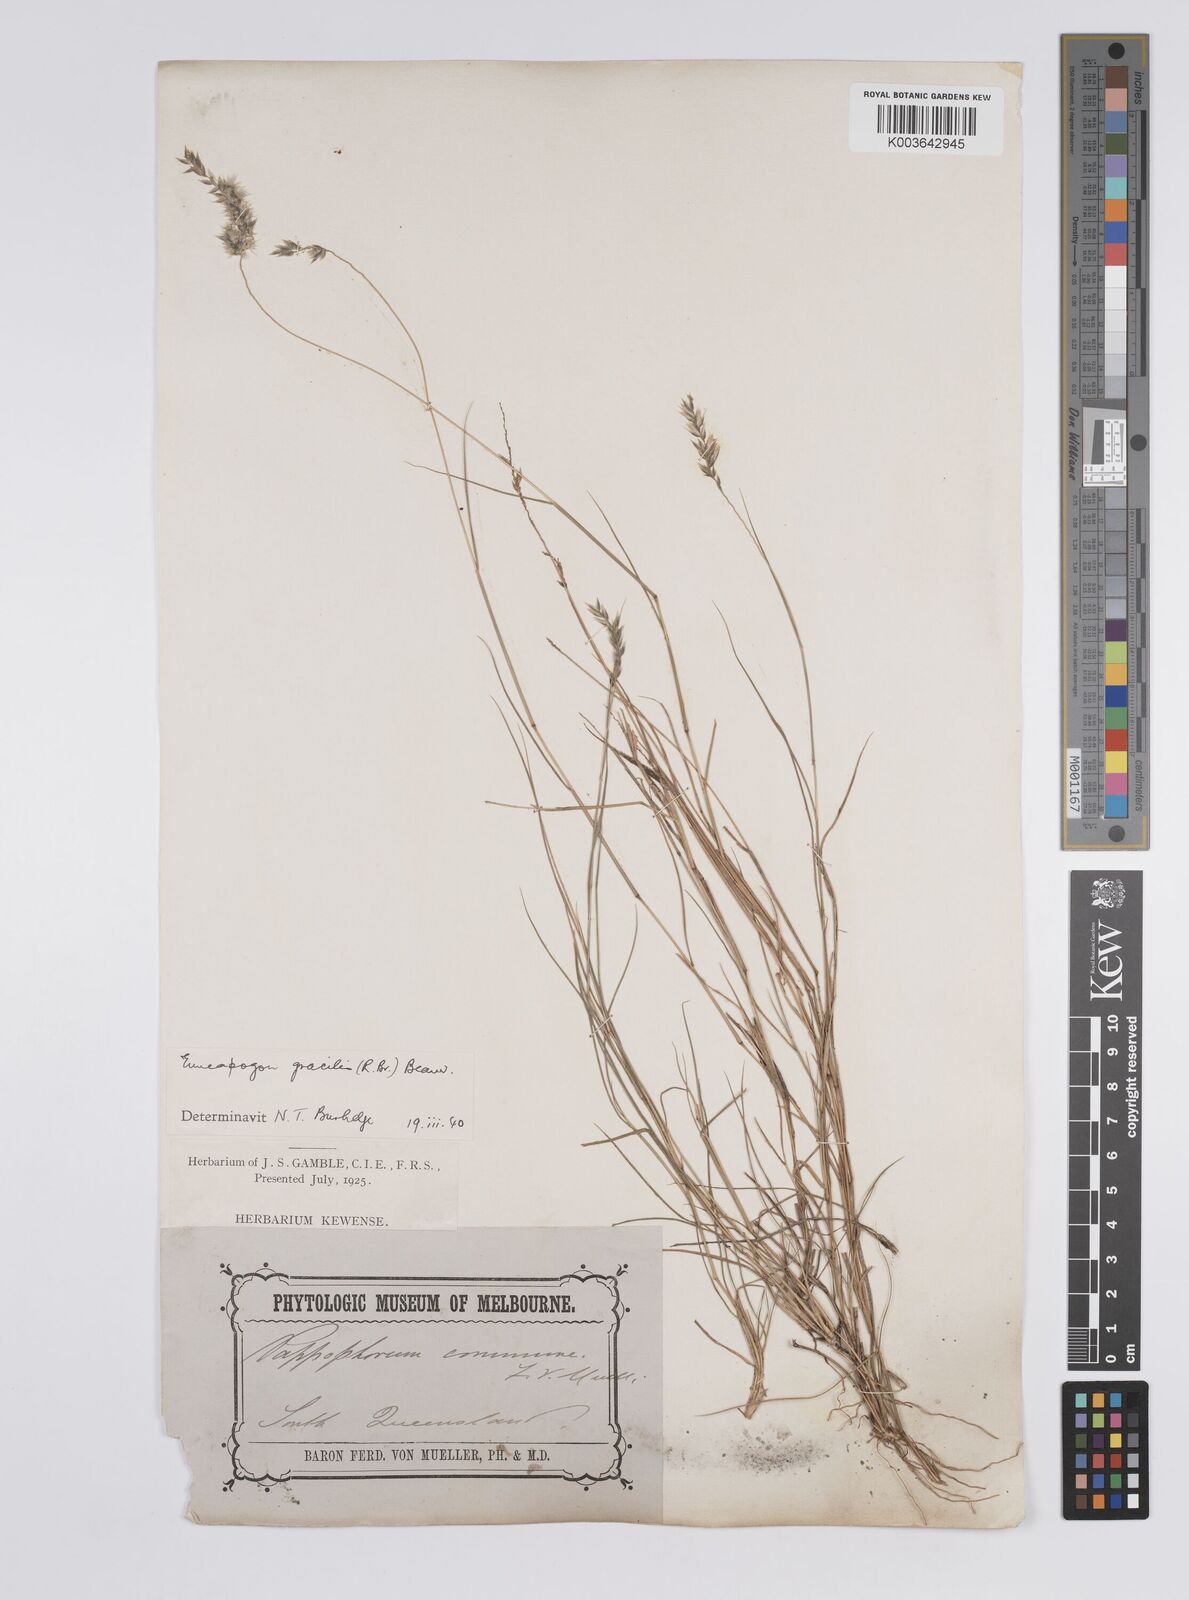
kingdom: Plantae
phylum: Tracheophyta
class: Liliopsida
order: Poales
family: Poaceae
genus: Enneapogon
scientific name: Enneapogon gracilis
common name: Slender bottle-washers
